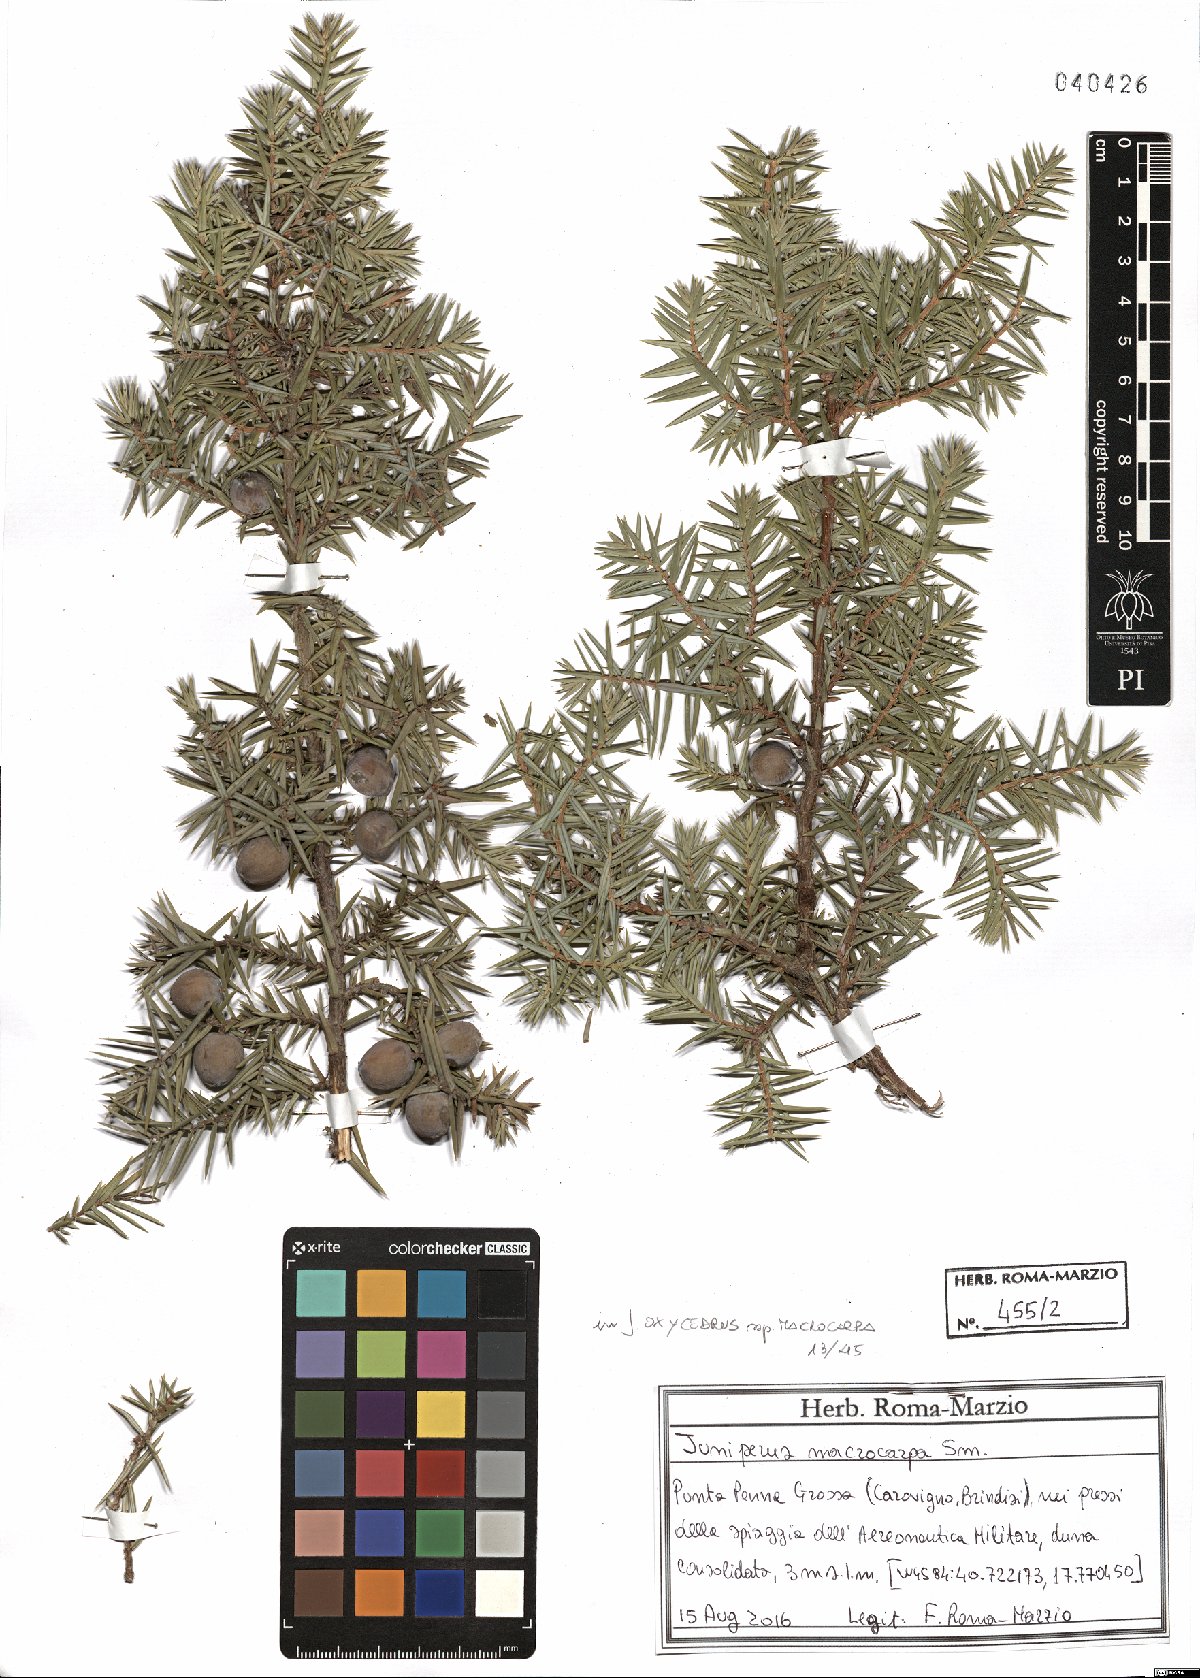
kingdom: Plantae
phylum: Tracheophyta
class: Pinopsida
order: Pinales
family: Cupressaceae
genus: Juniperus
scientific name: Juniperus oxycedrus
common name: Prickly juniper
